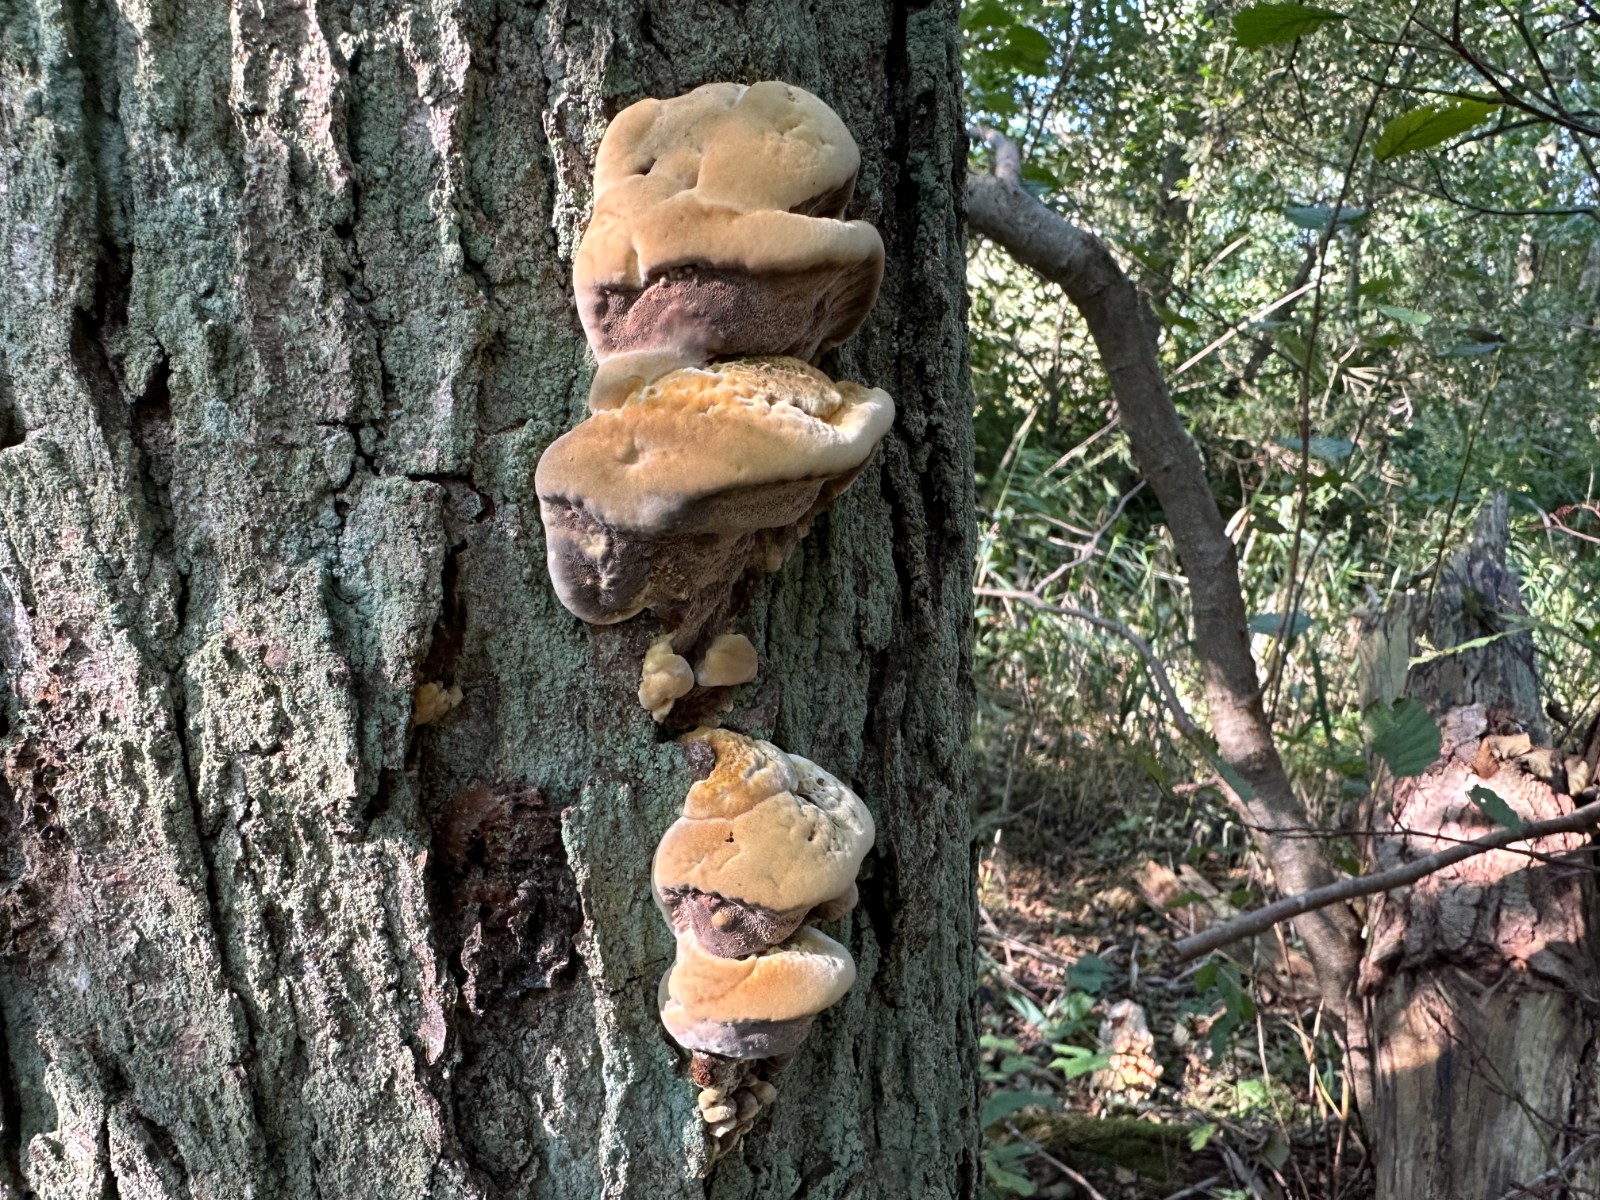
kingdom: Fungi
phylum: Basidiomycota
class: Agaricomycetes
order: Hymenochaetales
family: Hymenochaetaceae
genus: Xanthoporia
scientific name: Xanthoporia radiata
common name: elle-spejlporesvamp
